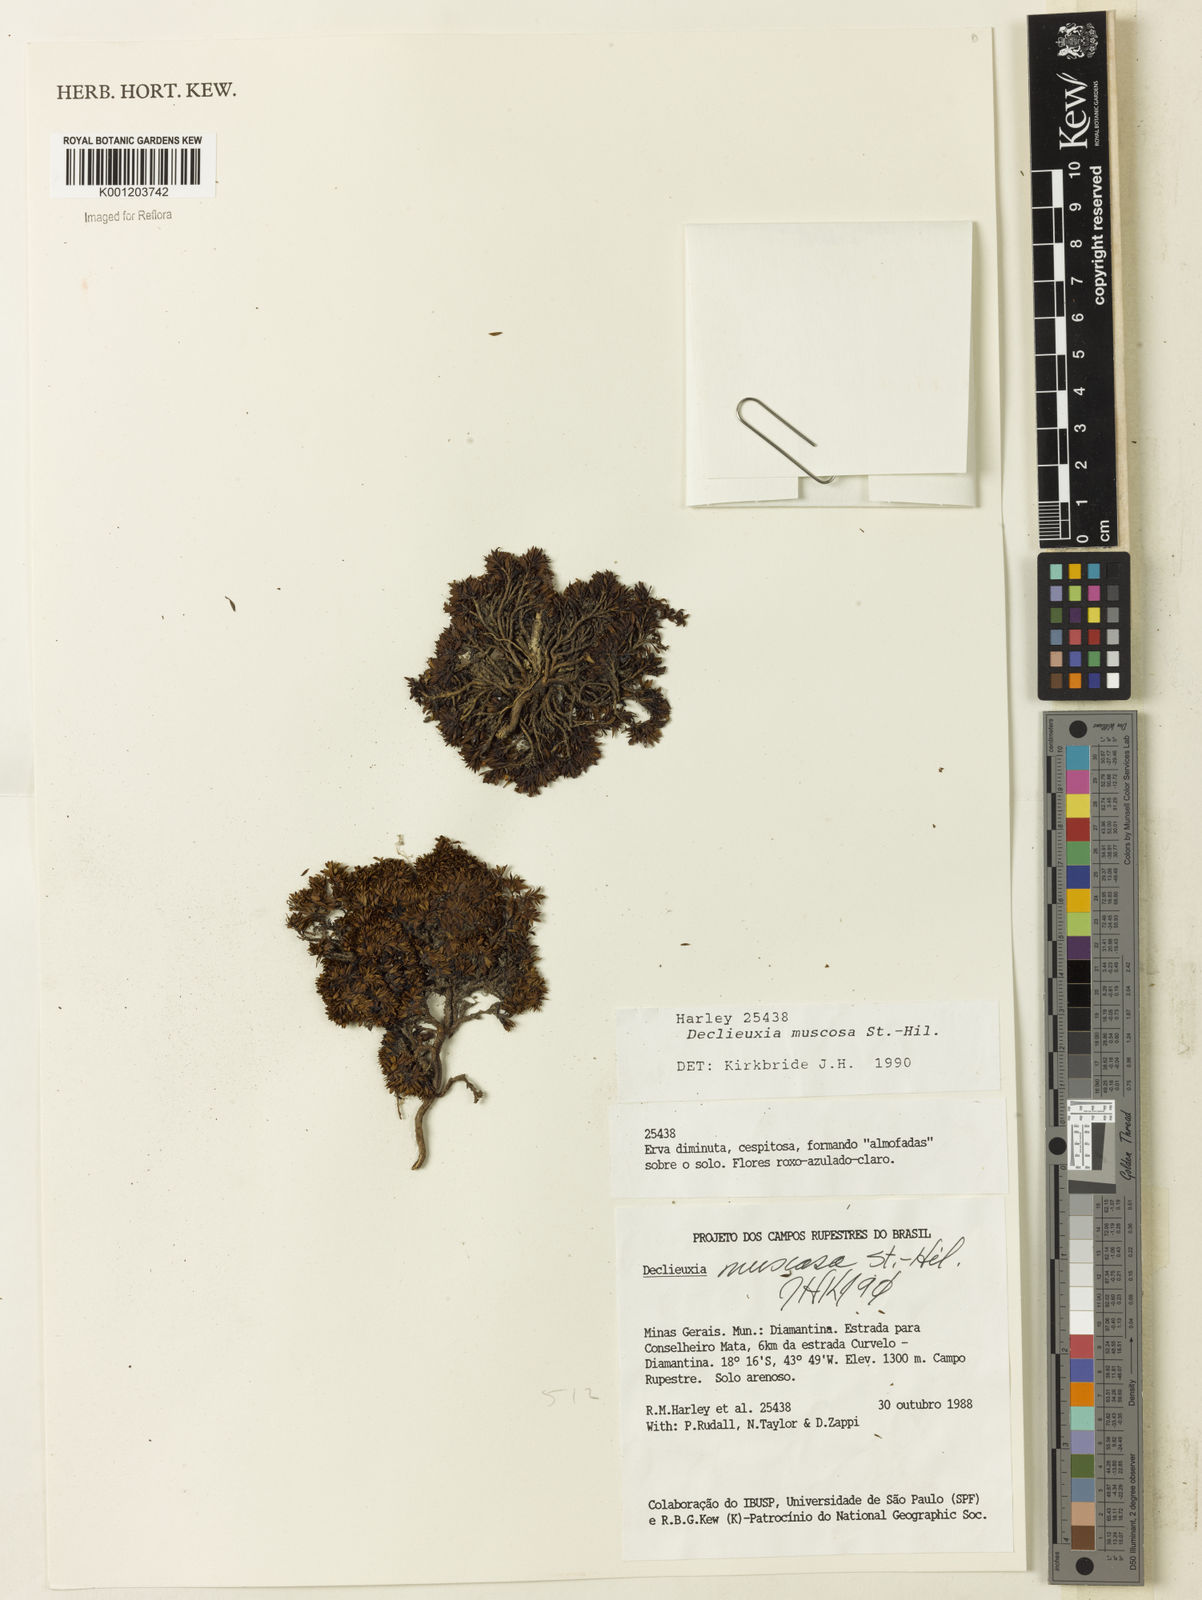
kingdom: Plantae
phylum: Tracheophyta
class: Magnoliopsida
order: Gentianales
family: Rubiaceae
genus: Declieuxia
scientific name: Declieuxia muscosa
